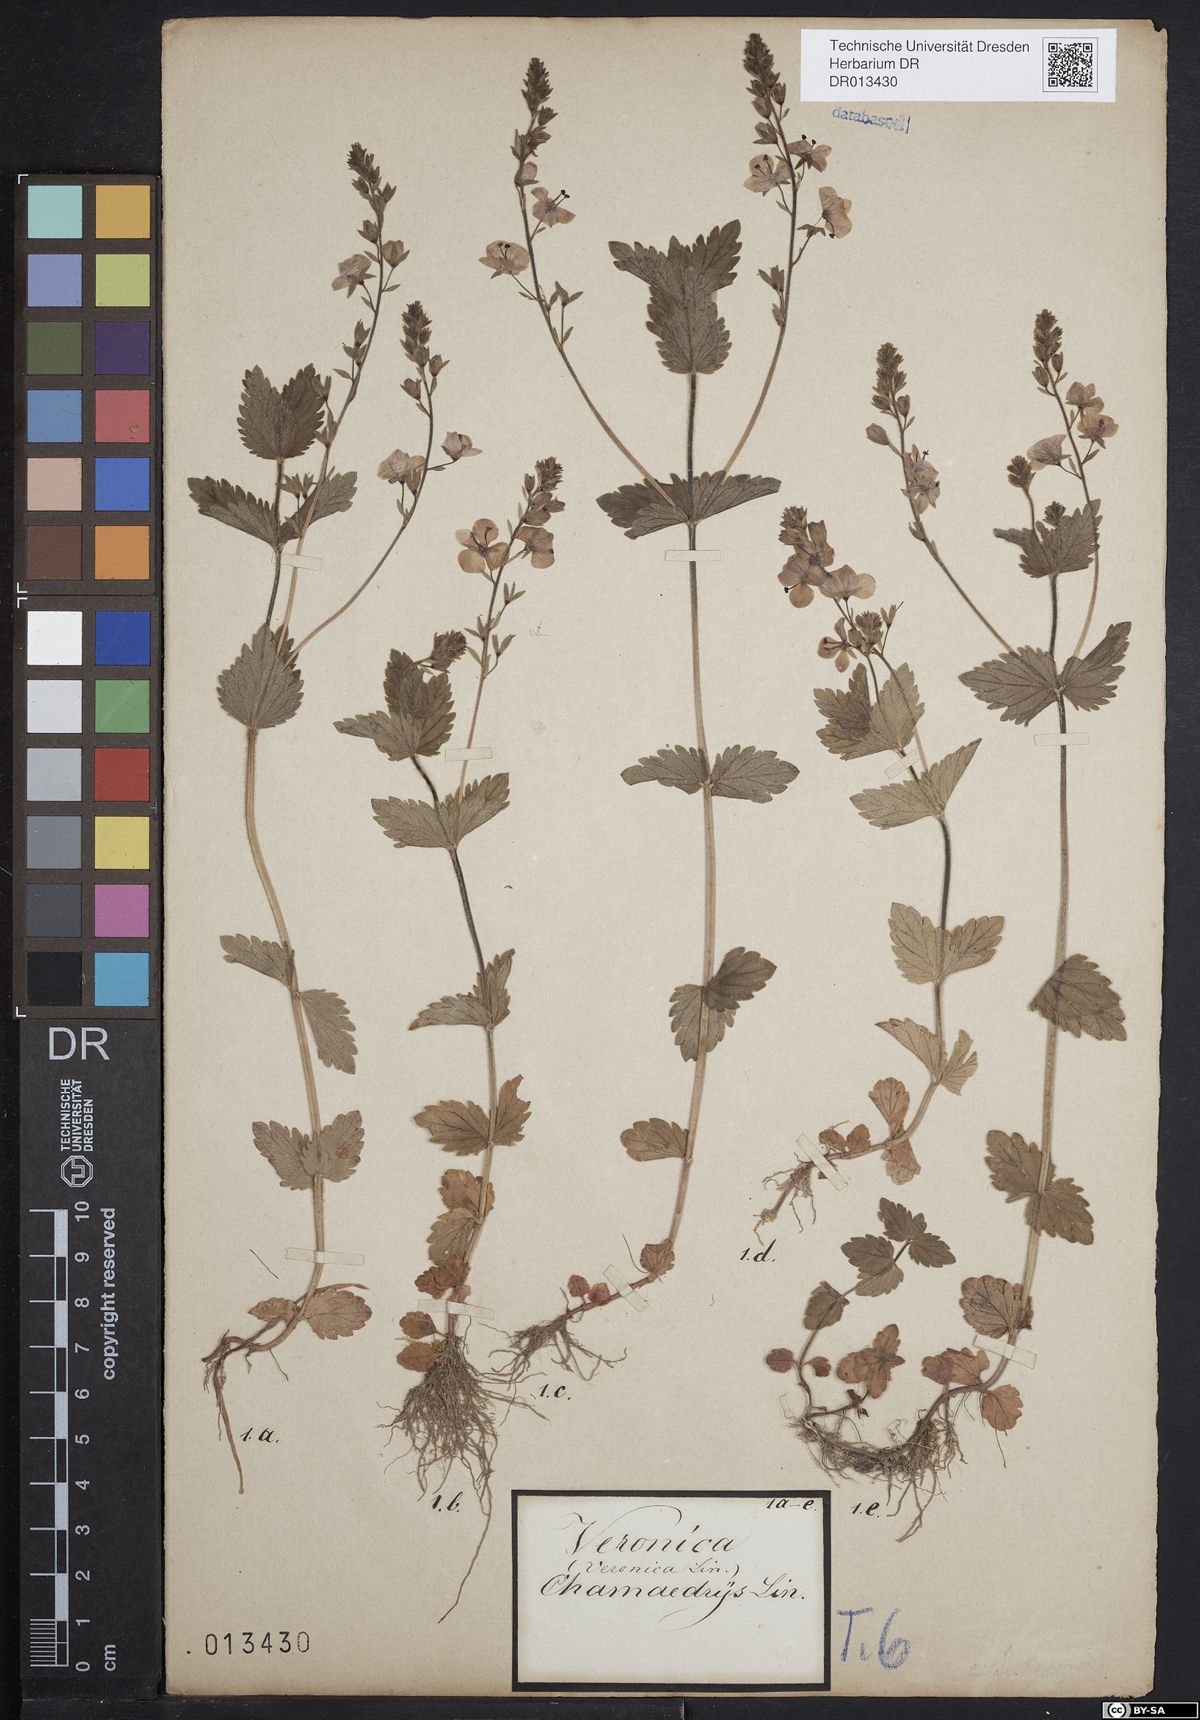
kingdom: Plantae
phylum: Tracheophyta
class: Magnoliopsida
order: Lamiales
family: Plantaginaceae
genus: Veronica
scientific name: Veronica chamaedrys
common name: Germander speedwell
